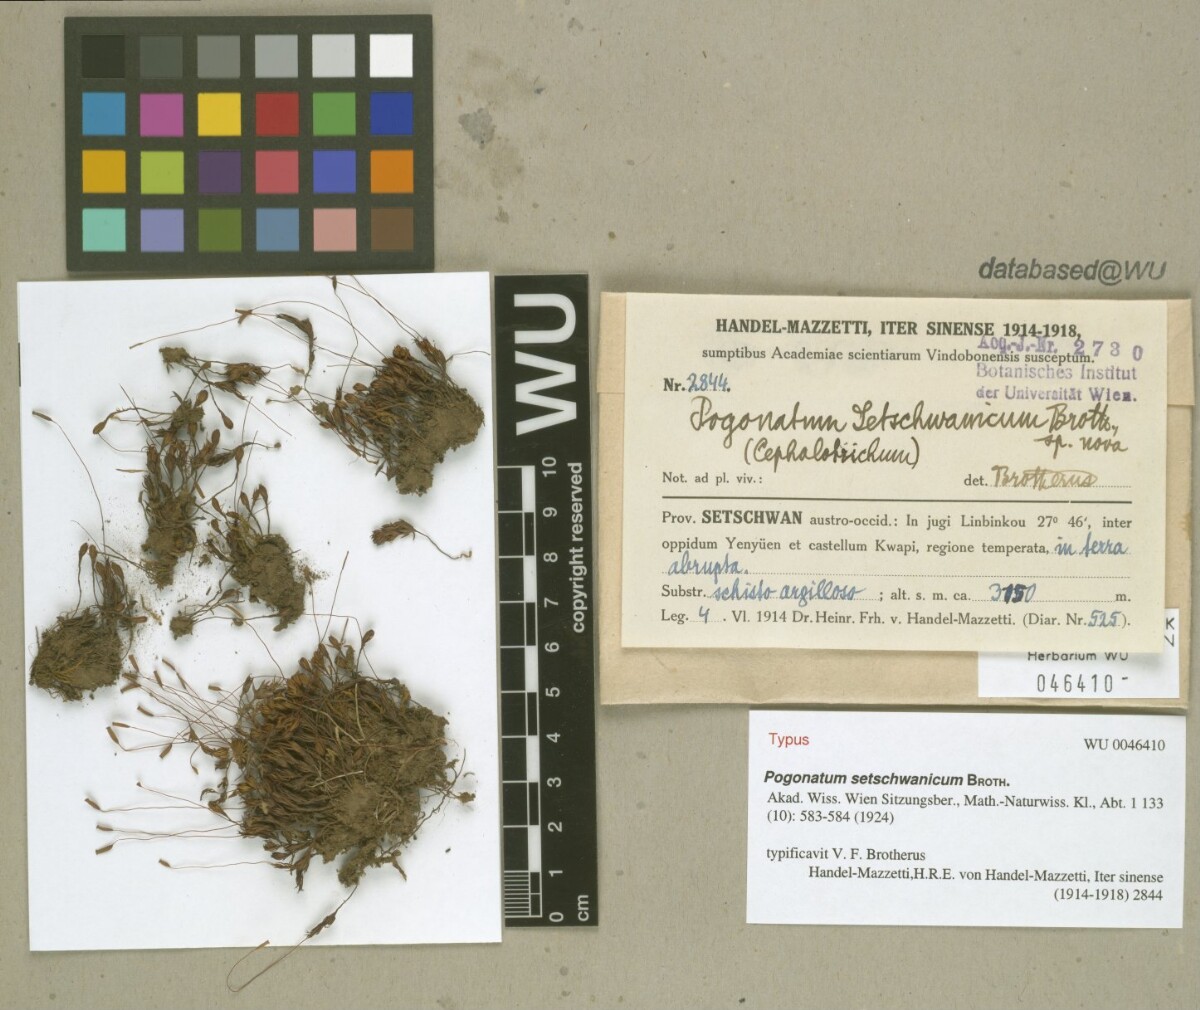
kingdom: Plantae
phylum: Bryophyta
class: Polytrichopsida
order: Polytrichales
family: Polytrichaceae
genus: Pogonatum
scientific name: Pogonatum perichaetiale
